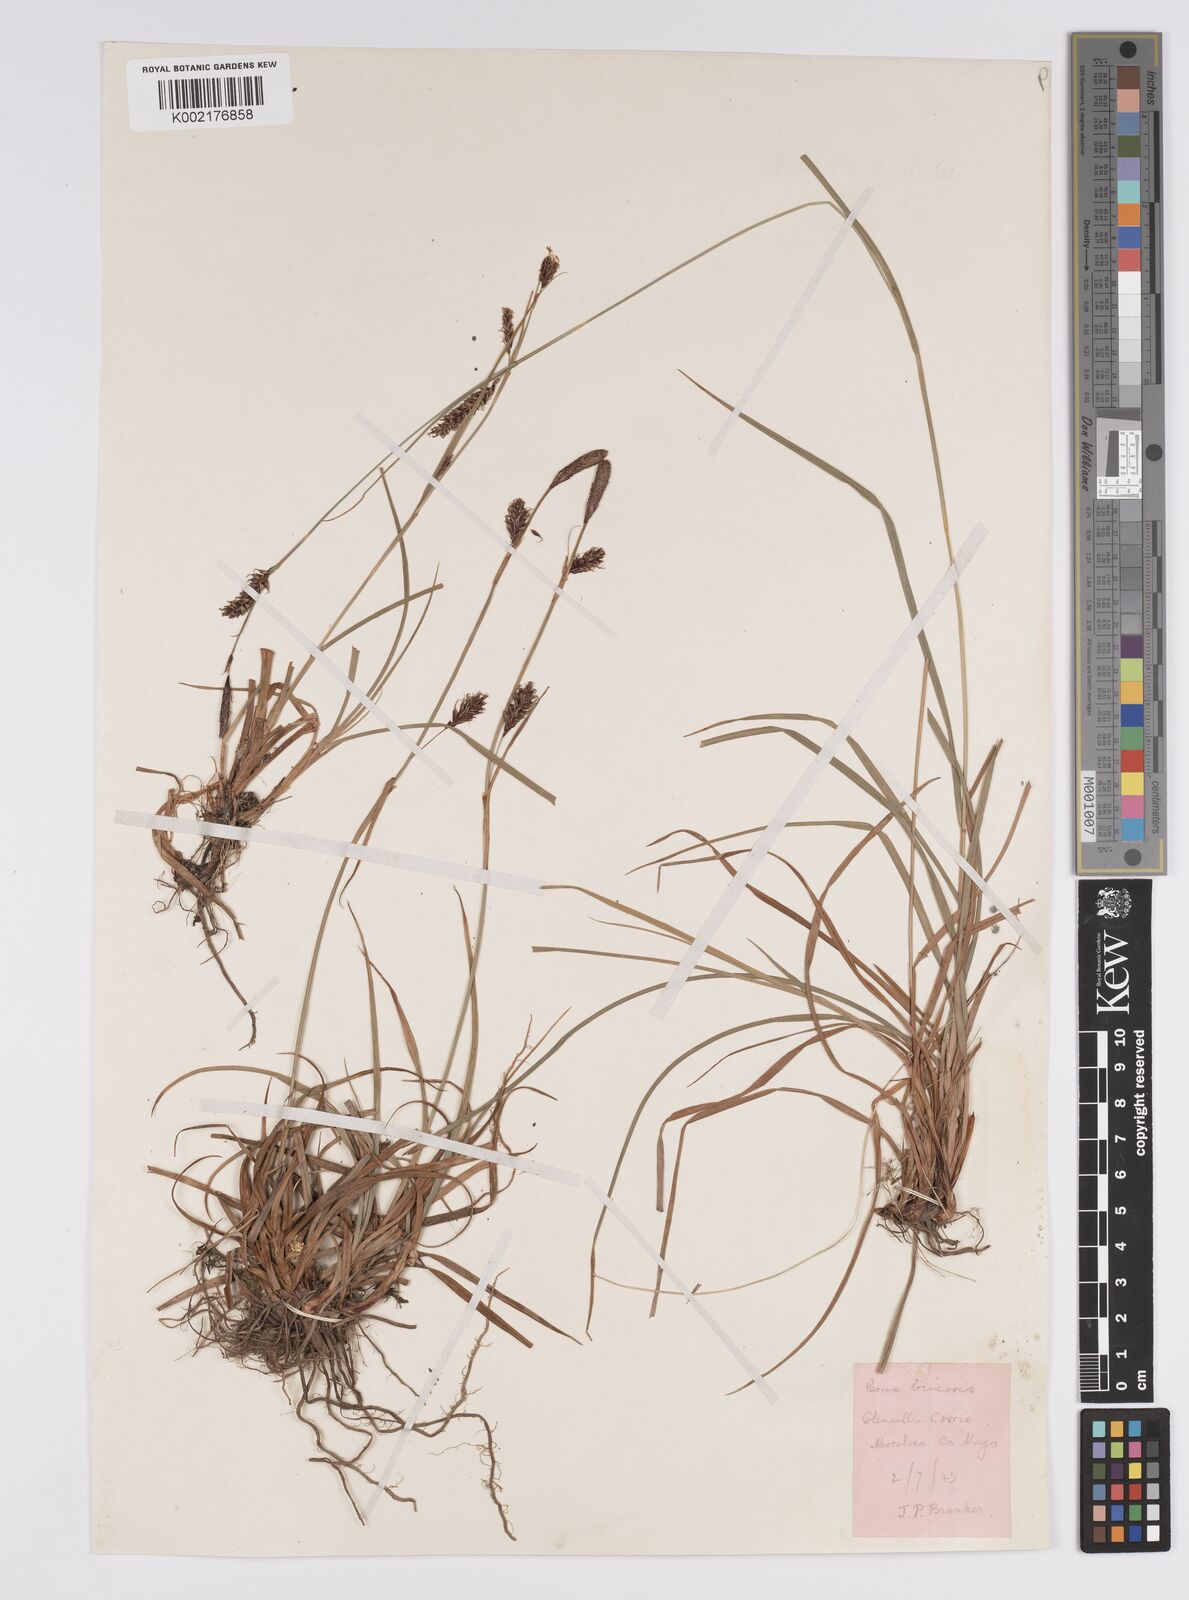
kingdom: Plantae
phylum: Tracheophyta
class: Liliopsida
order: Poales
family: Cyperaceae
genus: Carex
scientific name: Carex binervis
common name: Green-ribbed sedge
